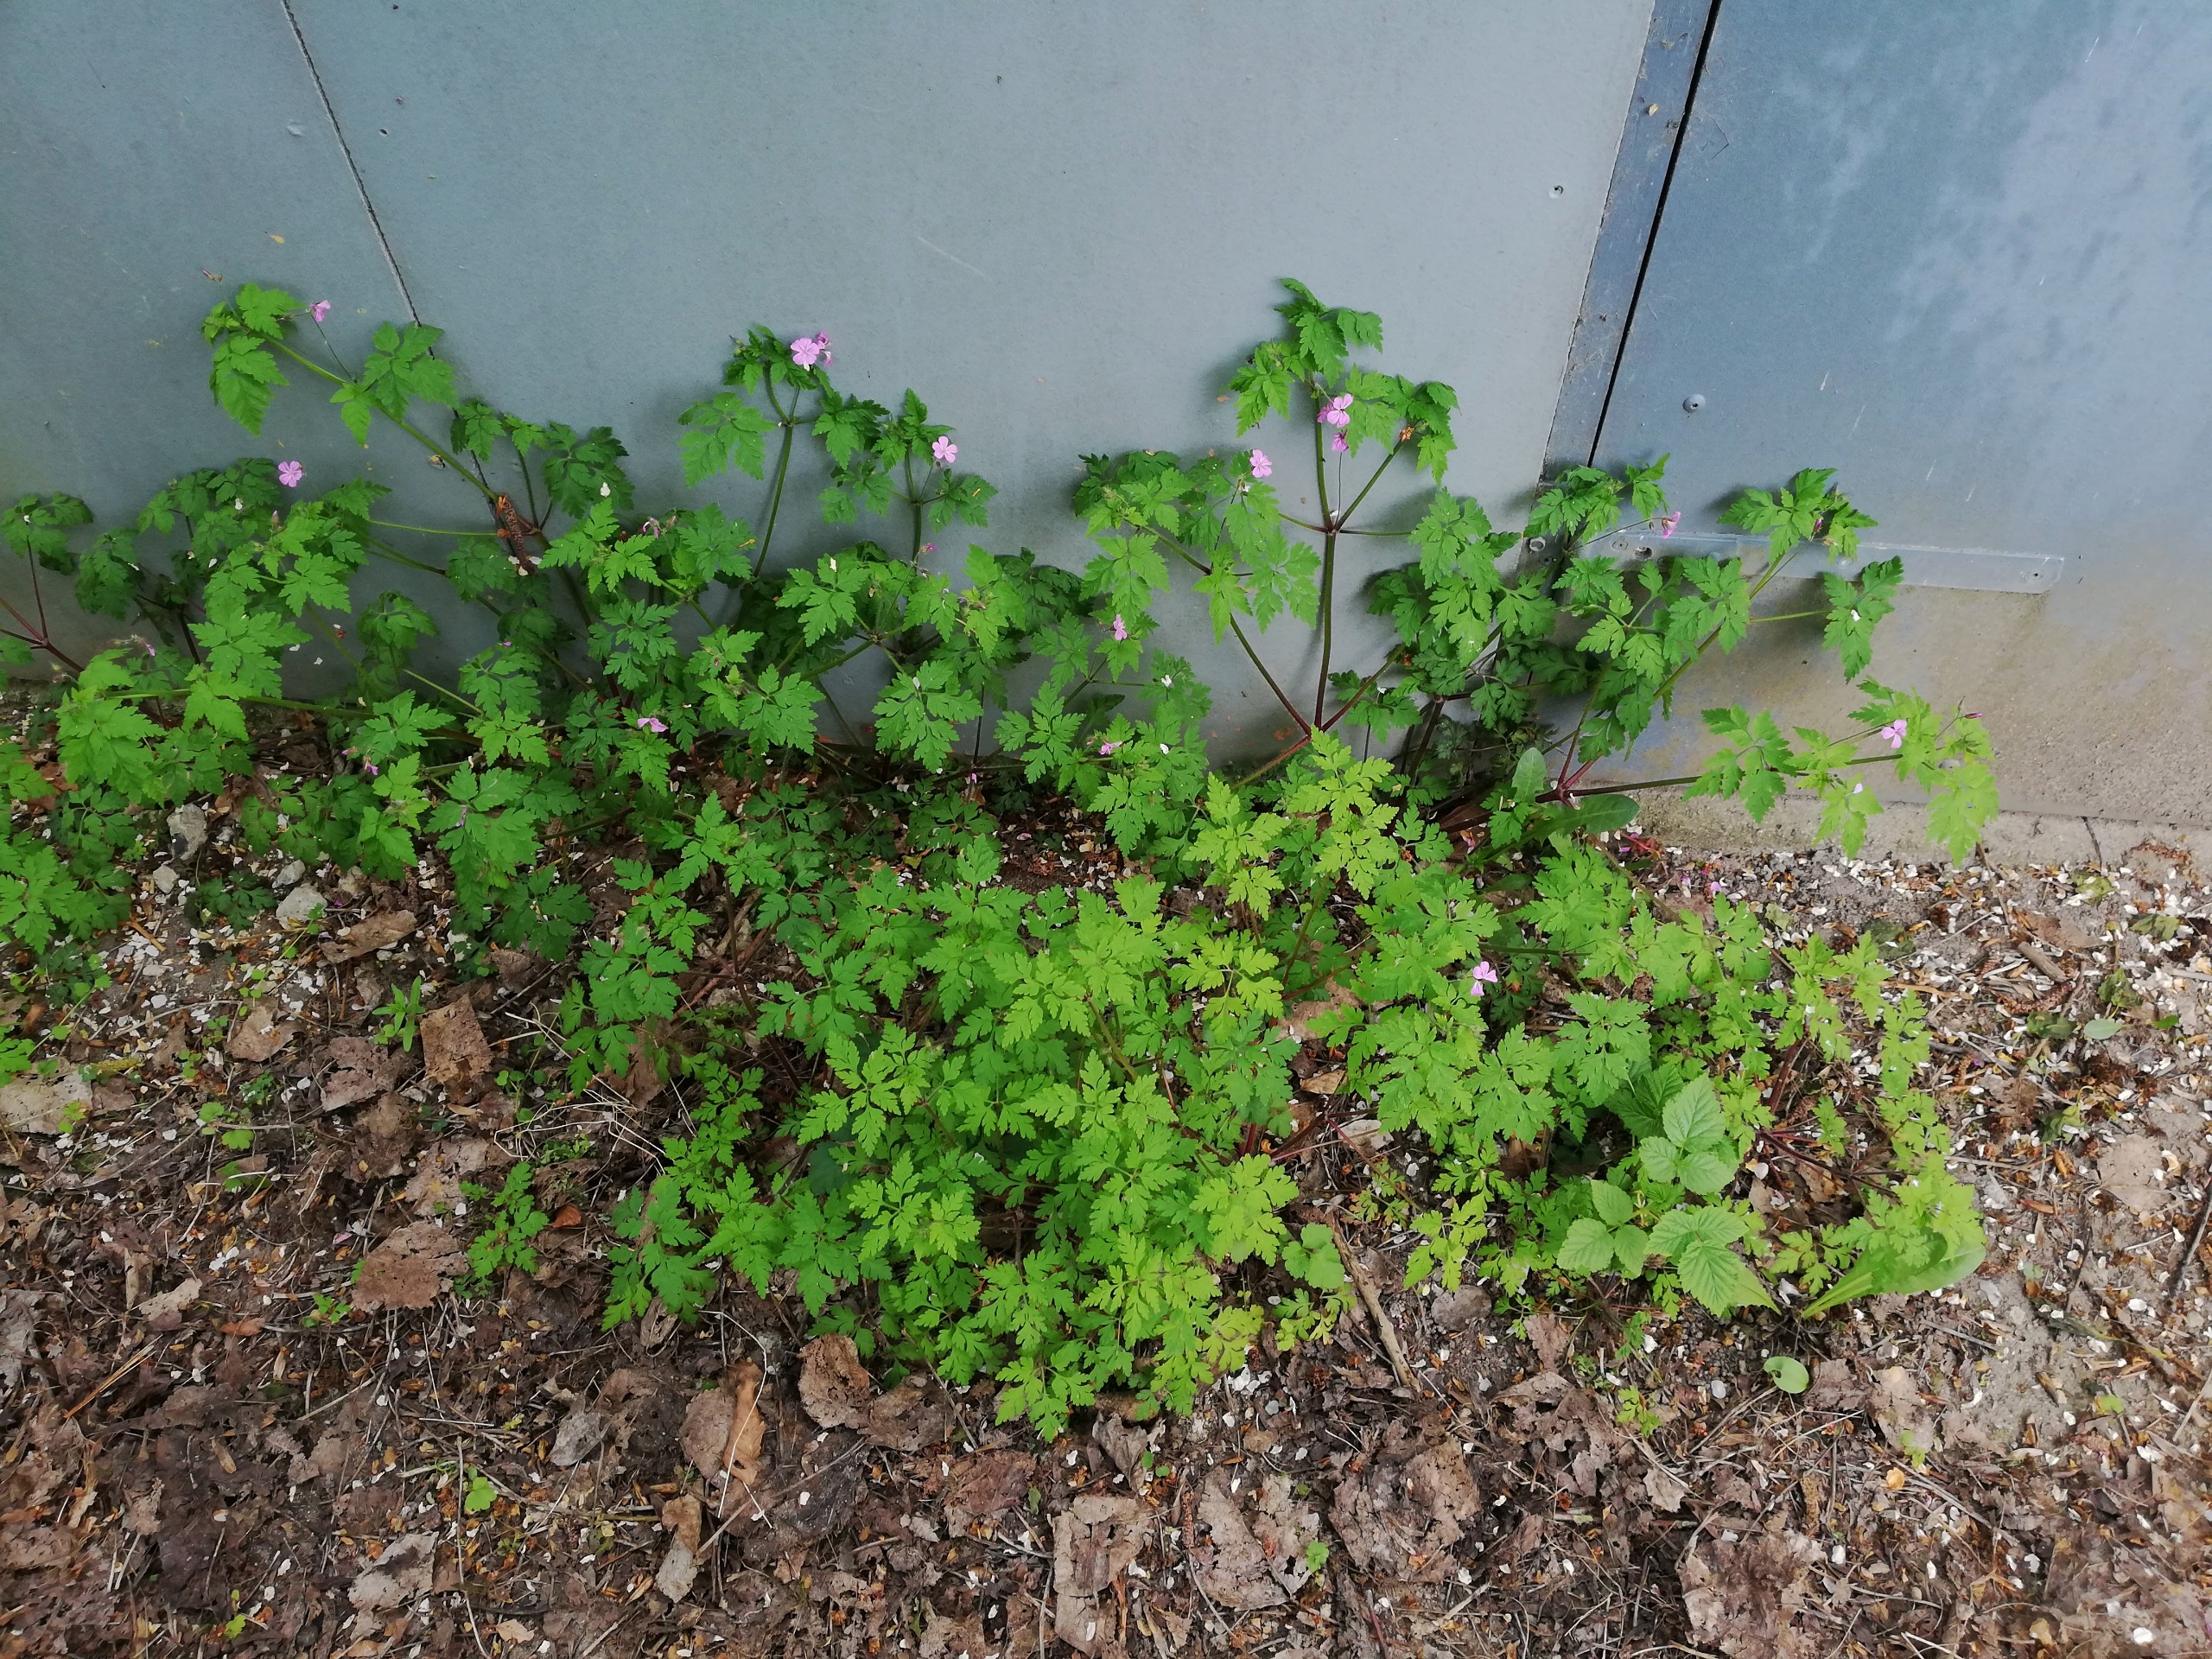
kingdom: Plantae
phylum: Tracheophyta
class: Magnoliopsida
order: Geraniales
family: Geraniaceae
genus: Geranium
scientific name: Geranium robertianum
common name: Stinkende storkenæb
